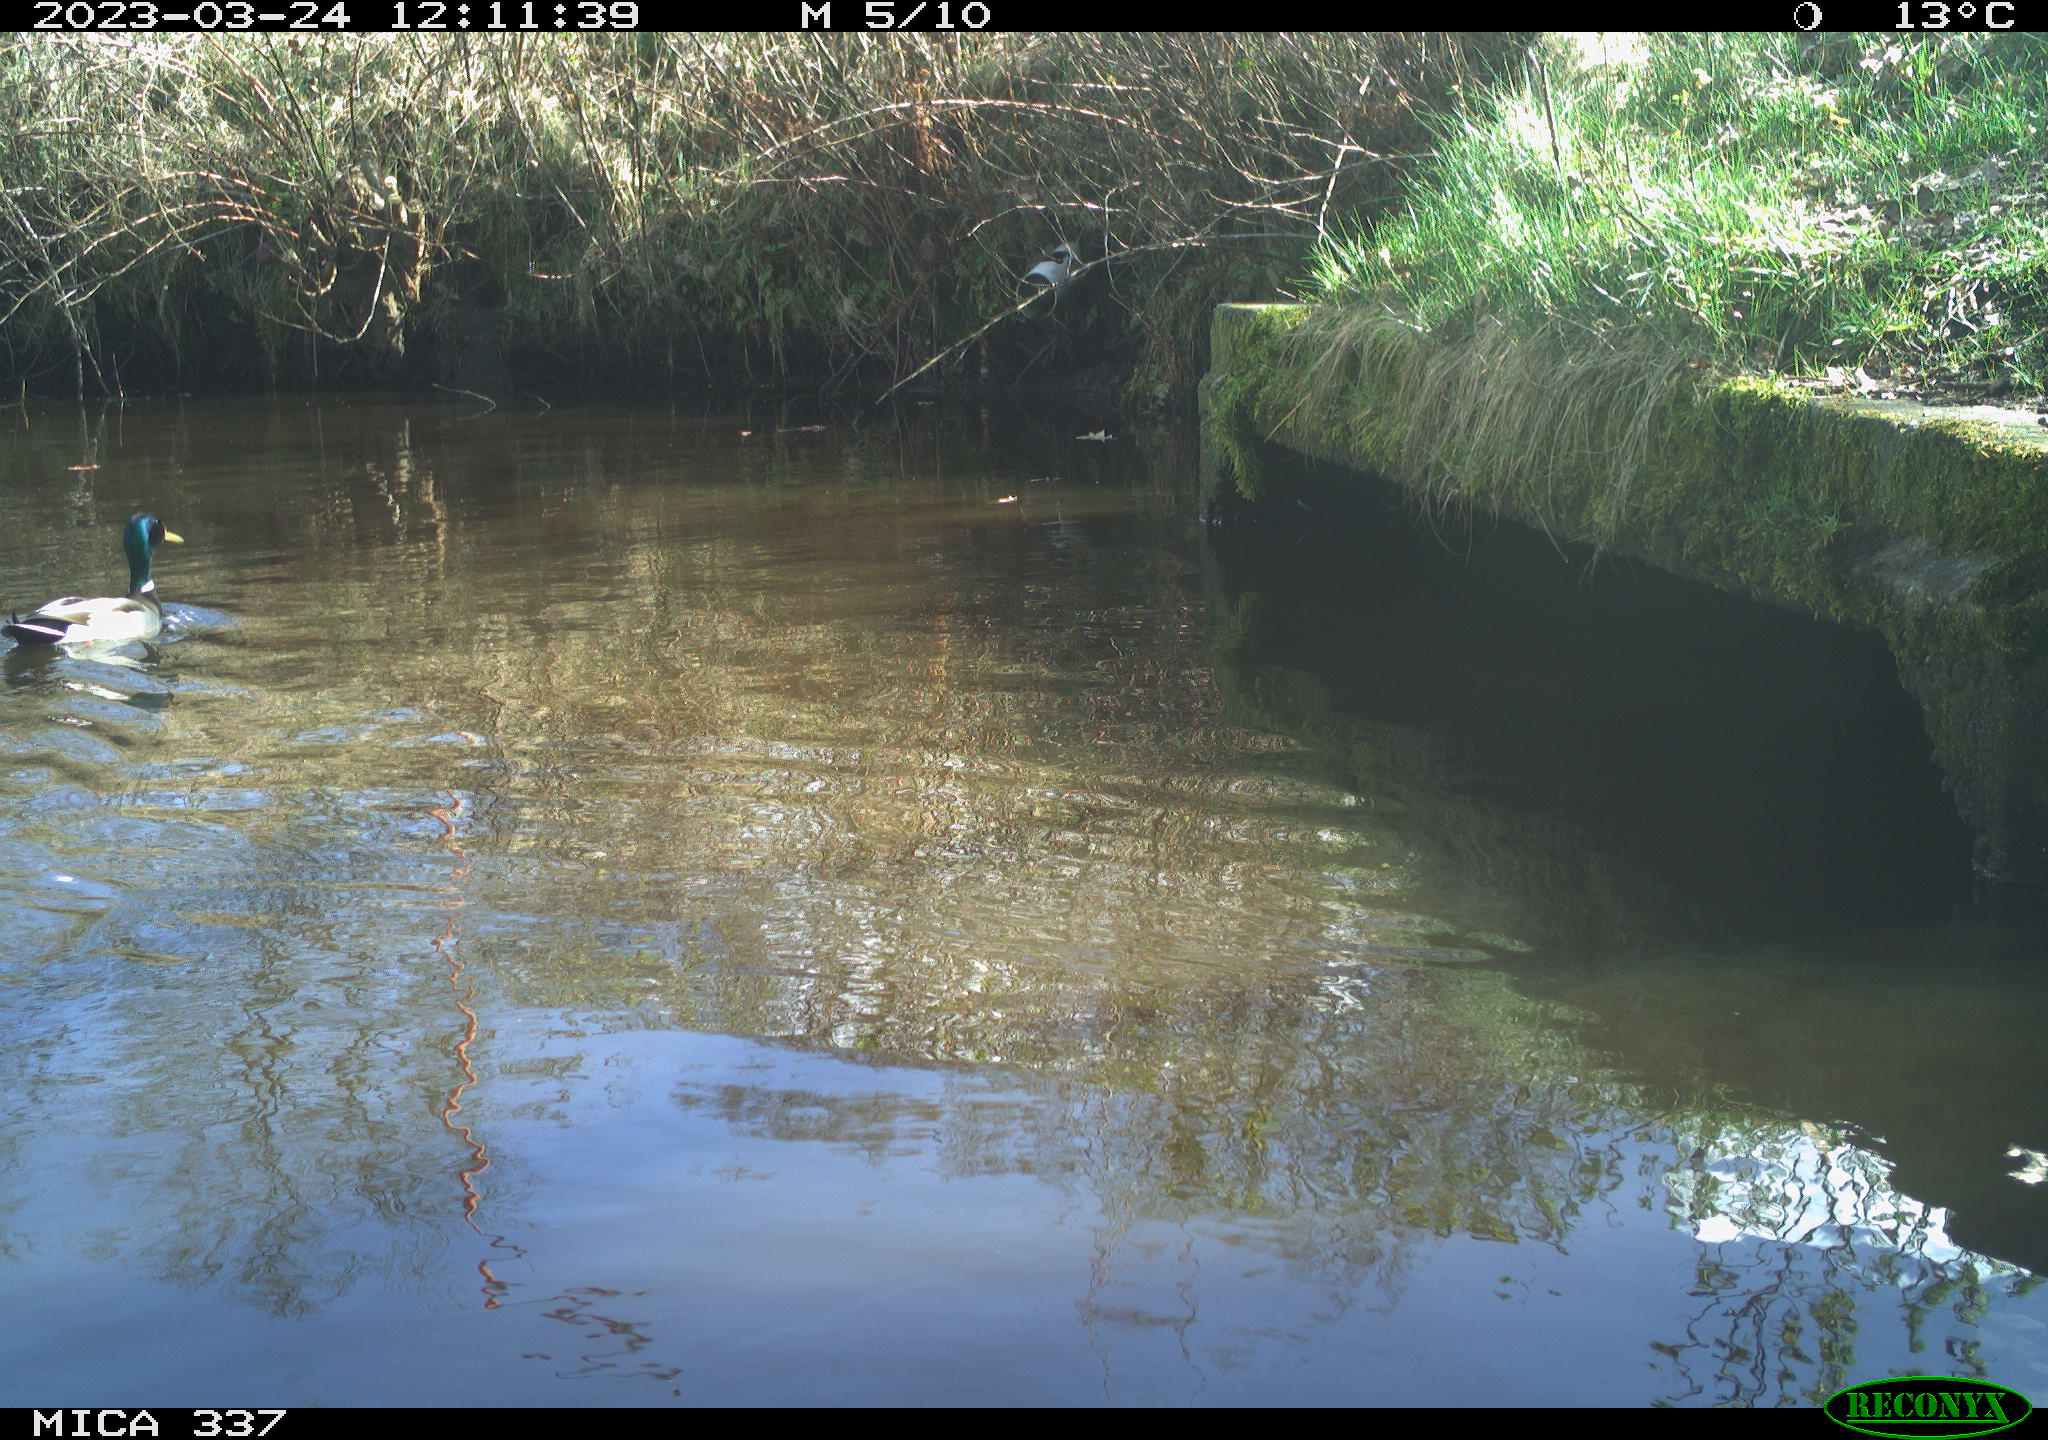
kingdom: Animalia
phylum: Chordata
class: Aves
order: Anseriformes
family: Anatidae
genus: Anas
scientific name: Anas
